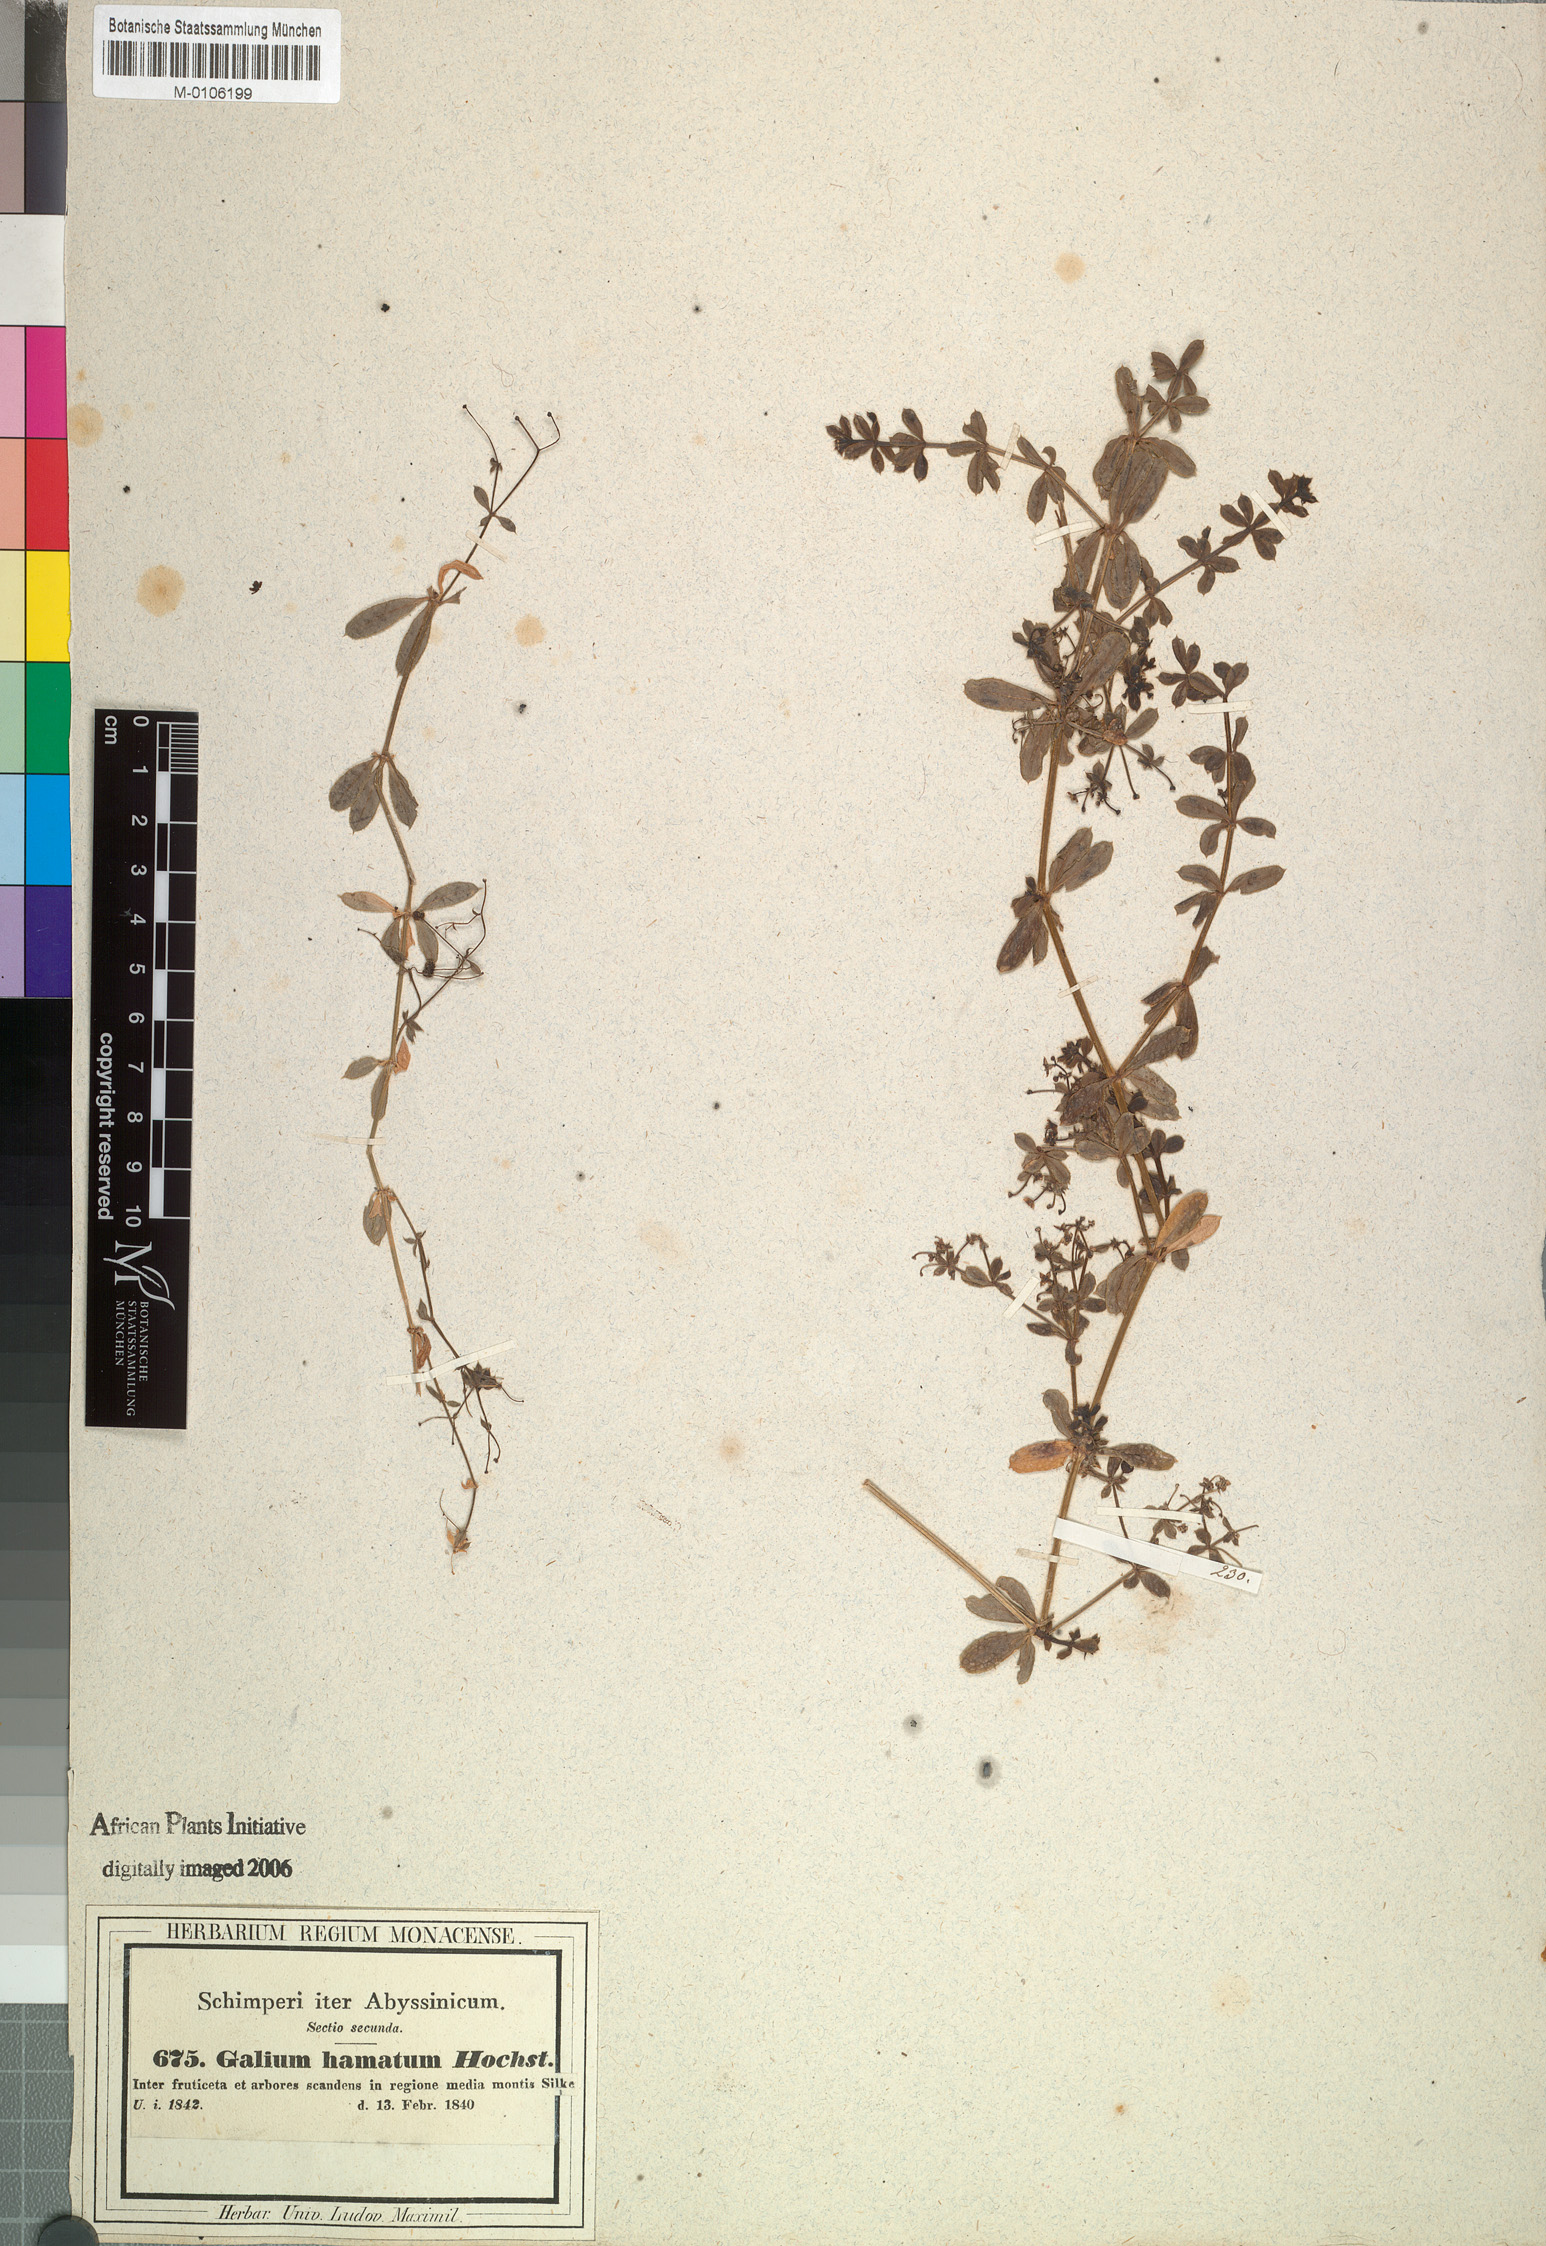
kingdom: Plantae
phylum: Tracheophyta
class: Magnoliopsida
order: Gentianales
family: Rubiaceae
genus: Galium
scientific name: Galium aparinoides
